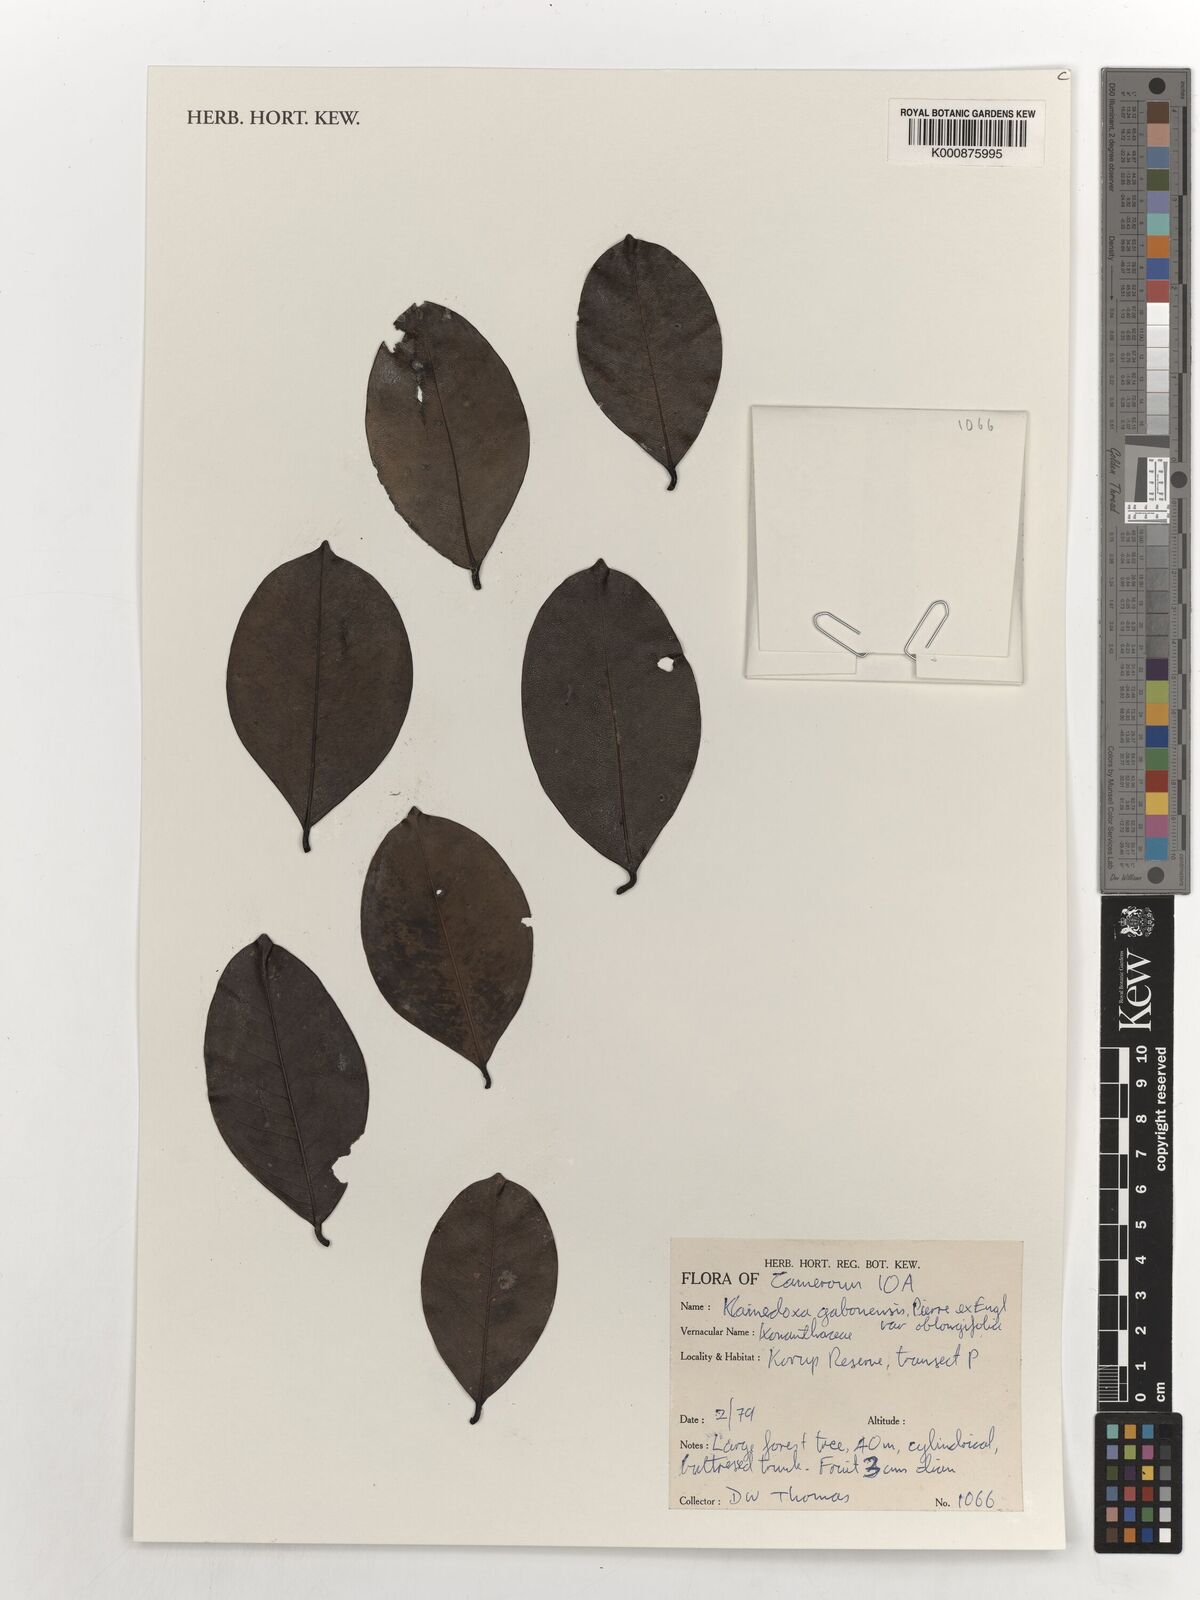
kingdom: Plantae
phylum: Tracheophyta
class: Magnoliopsida
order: Malpighiales
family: Irvingiaceae
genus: Klainedoxa
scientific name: Klainedoxa gabonensis
